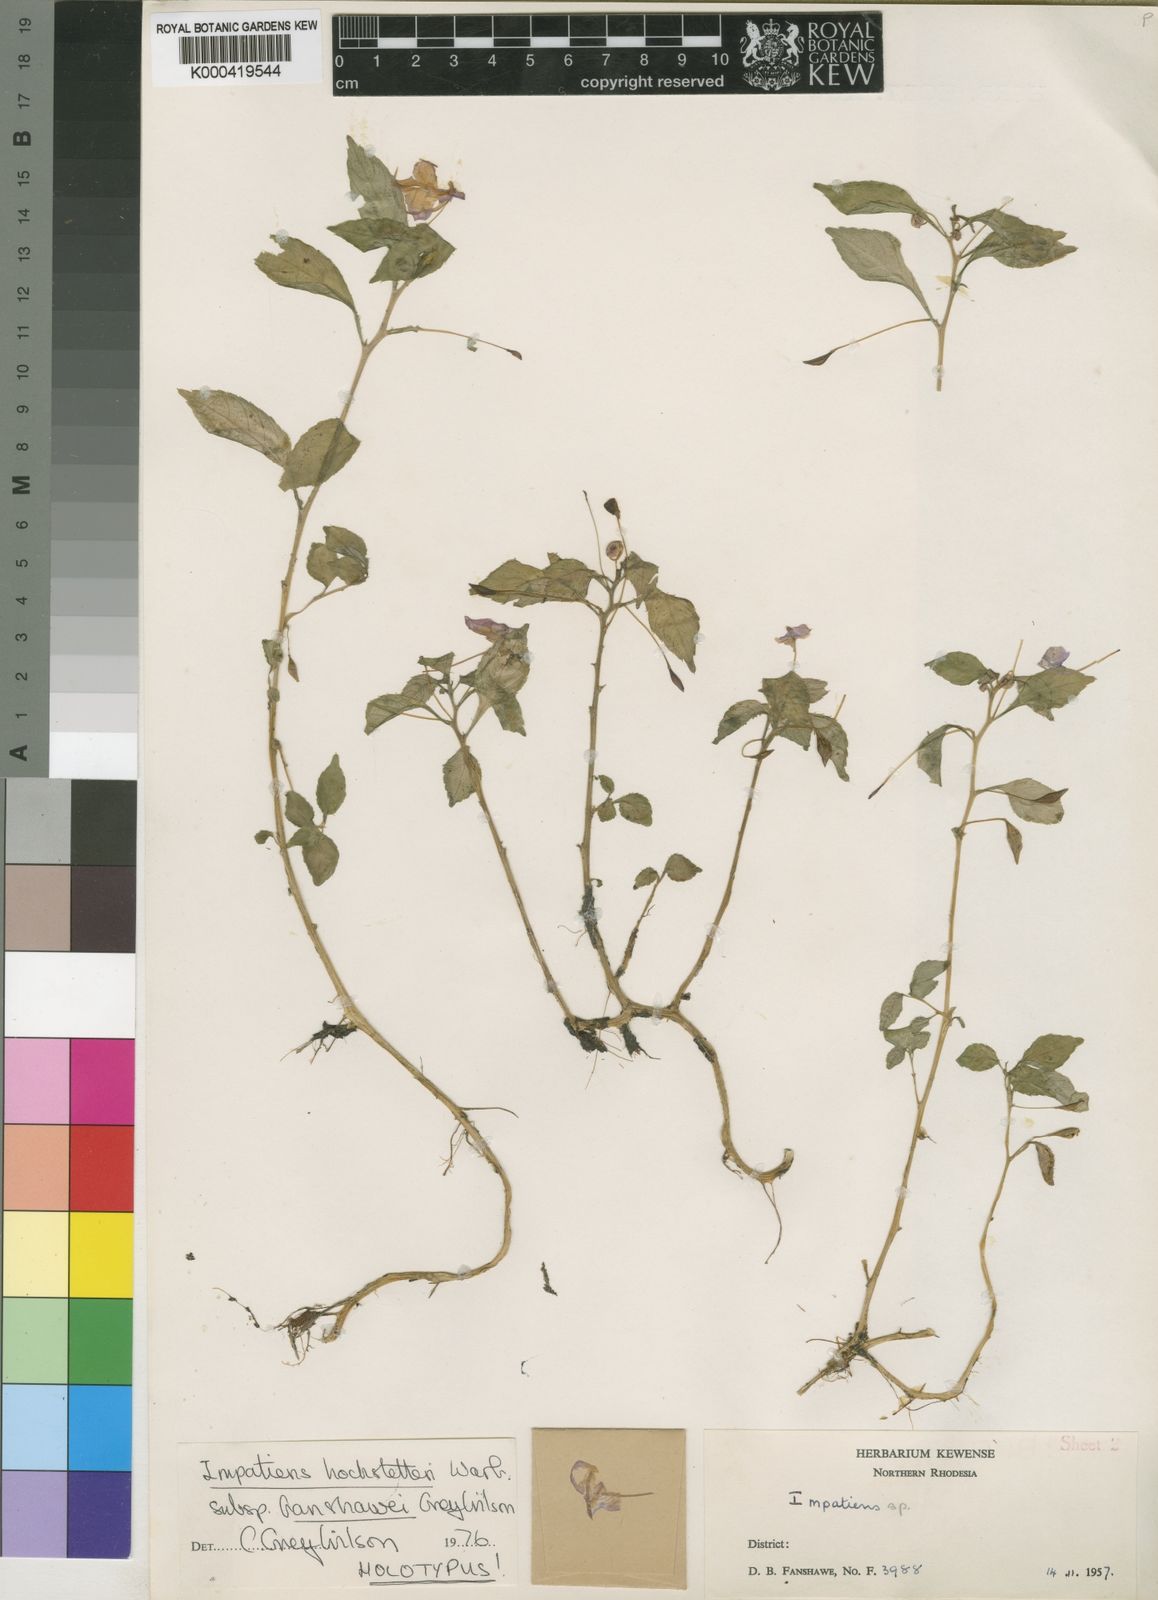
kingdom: Plantae
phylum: Tracheophyta
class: Magnoliopsida
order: Ericales
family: Balsaminaceae
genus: Impatiens
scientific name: Impatiens hochstetteri
